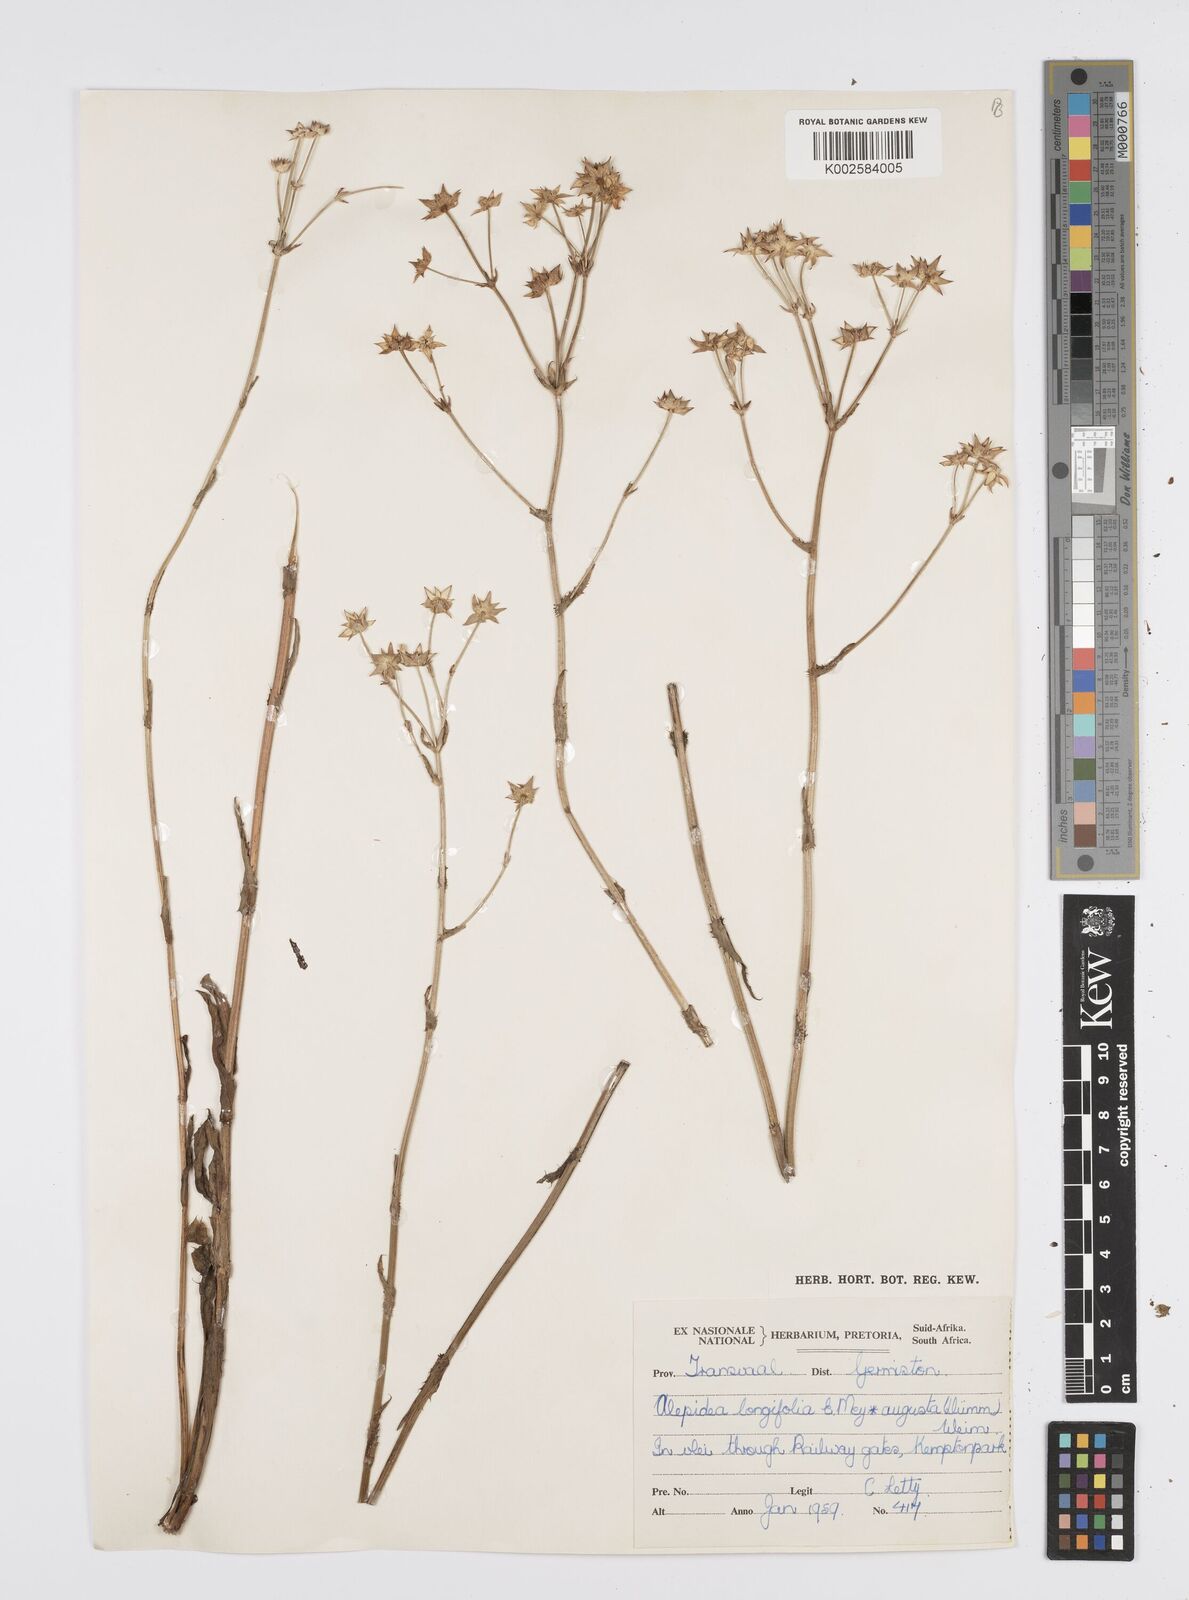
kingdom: Plantae
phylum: Tracheophyta
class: Magnoliopsida
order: Apiales
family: Apiaceae
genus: Alepidea
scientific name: Alepidea
